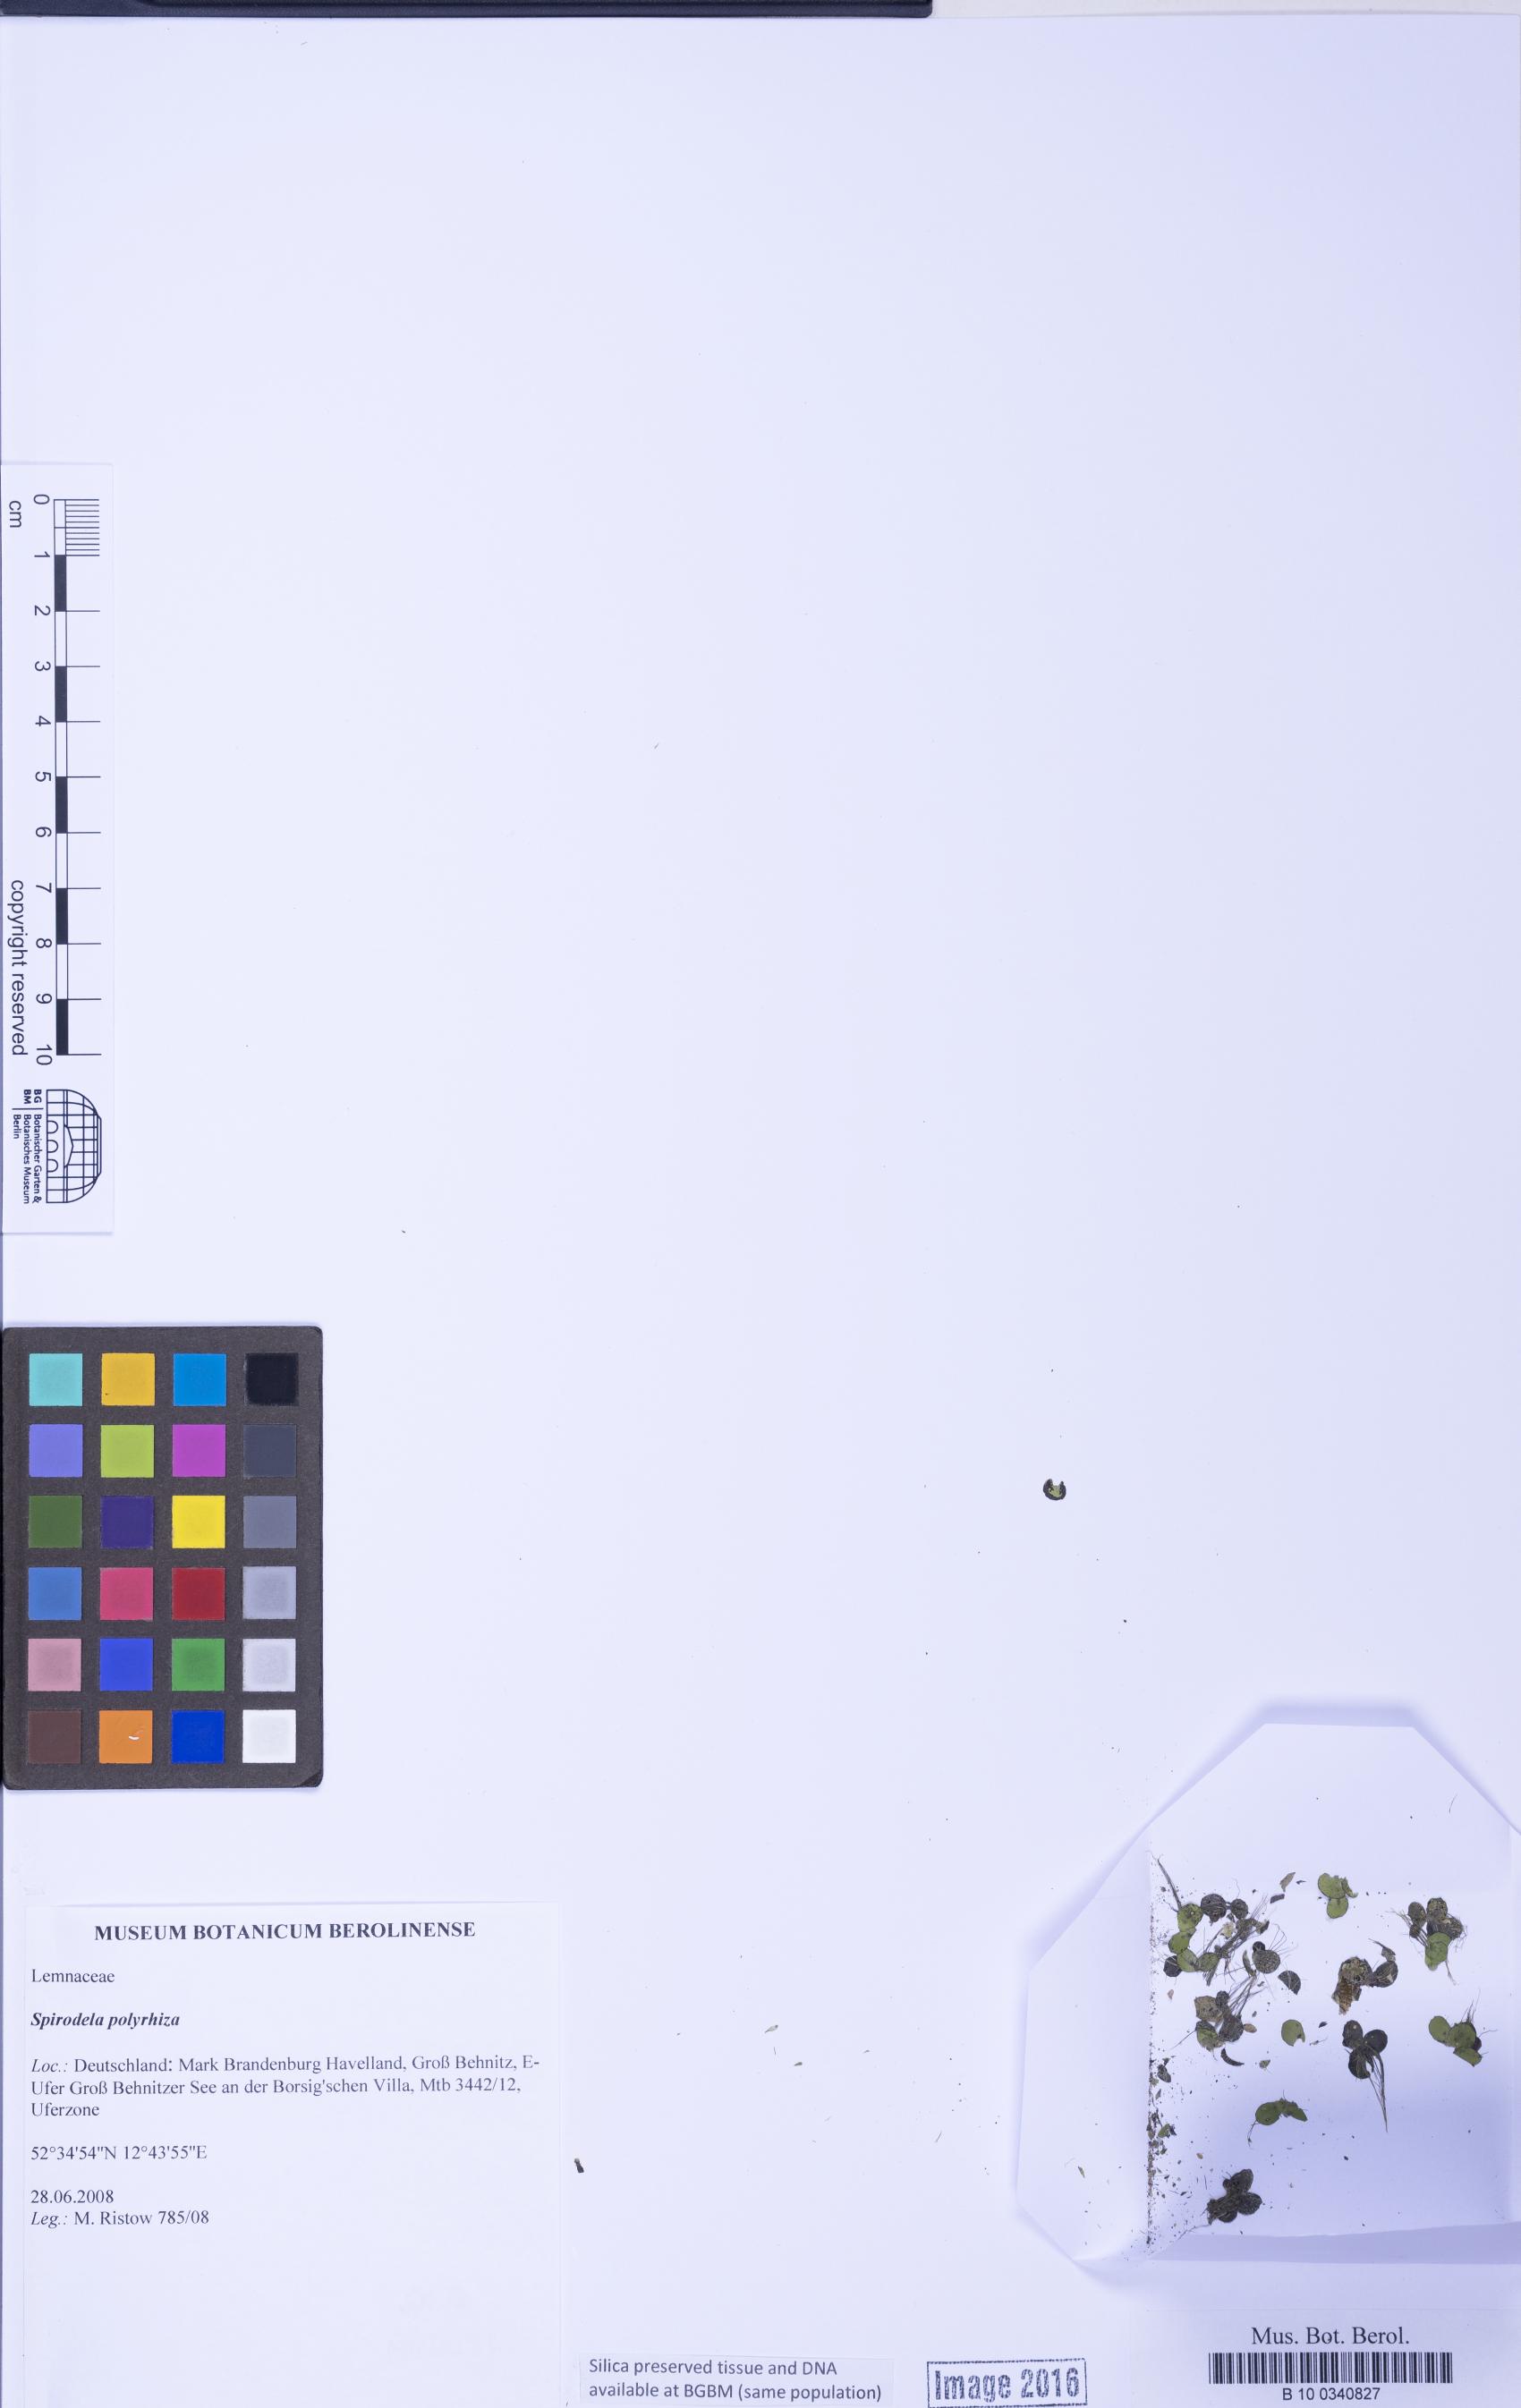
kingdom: Plantae
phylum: Tracheophyta
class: Liliopsida
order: Alismatales
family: Araceae
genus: Spirodela
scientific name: Spirodela polyrhiza
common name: Great duckweed
